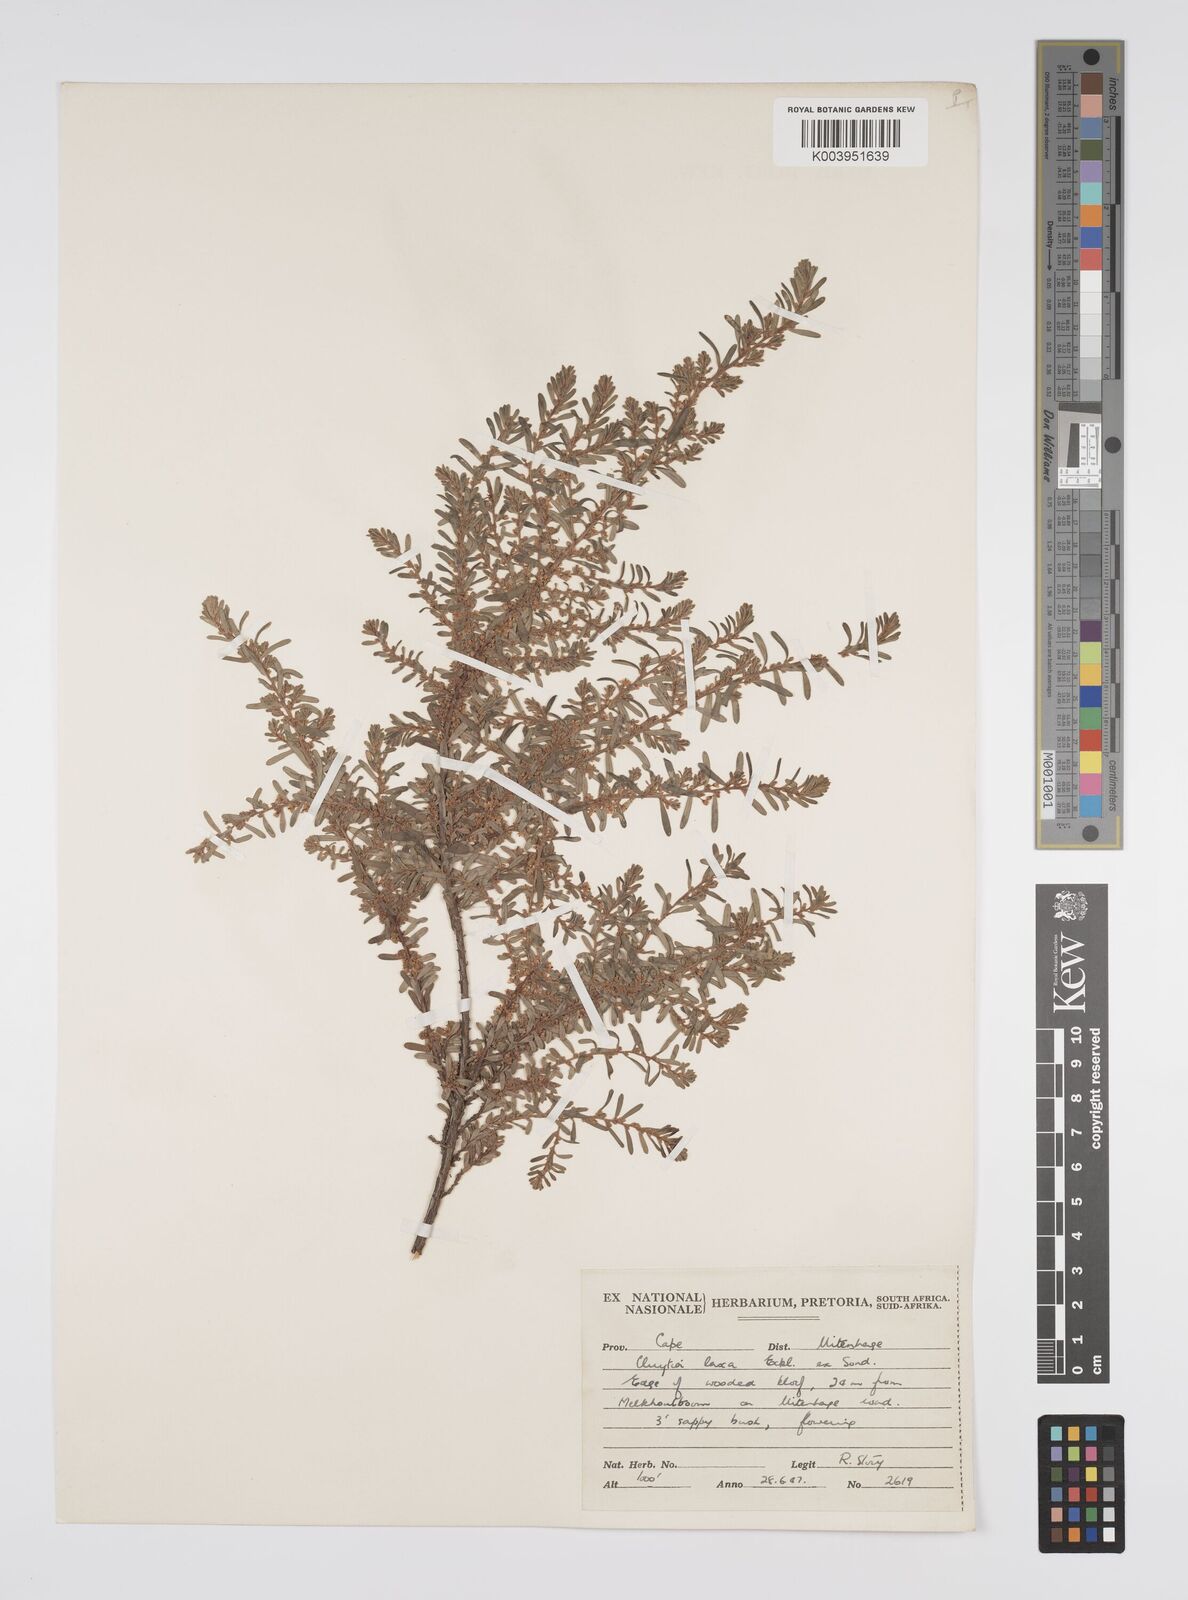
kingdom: Plantae
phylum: Tracheophyta
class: Magnoliopsida
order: Malpighiales
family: Peraceae
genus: Clutia
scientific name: Clutia laxa
